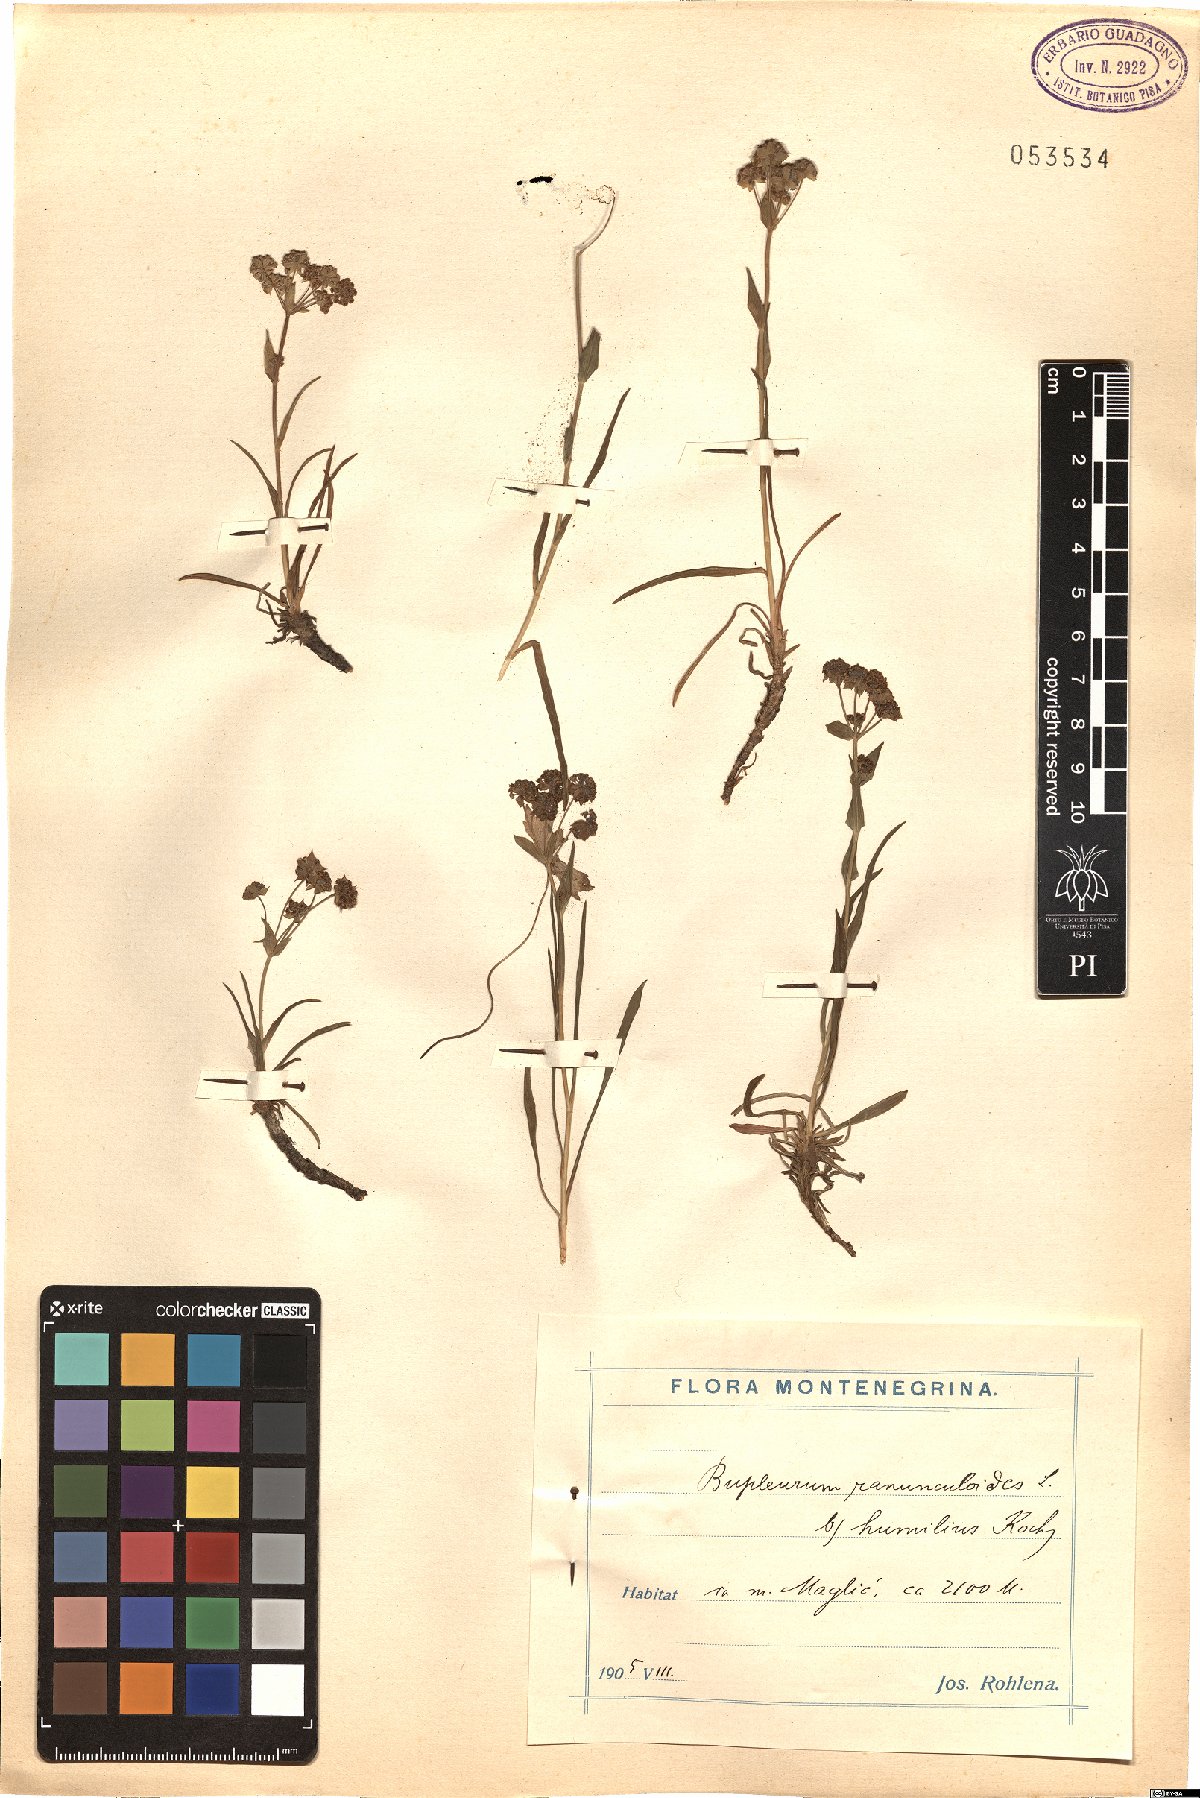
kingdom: Plantae
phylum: Tracheophyta
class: Magnoliopsida
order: Apiales
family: Apiaceae
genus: Bupleurum
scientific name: Bupleurum ranunculoides
